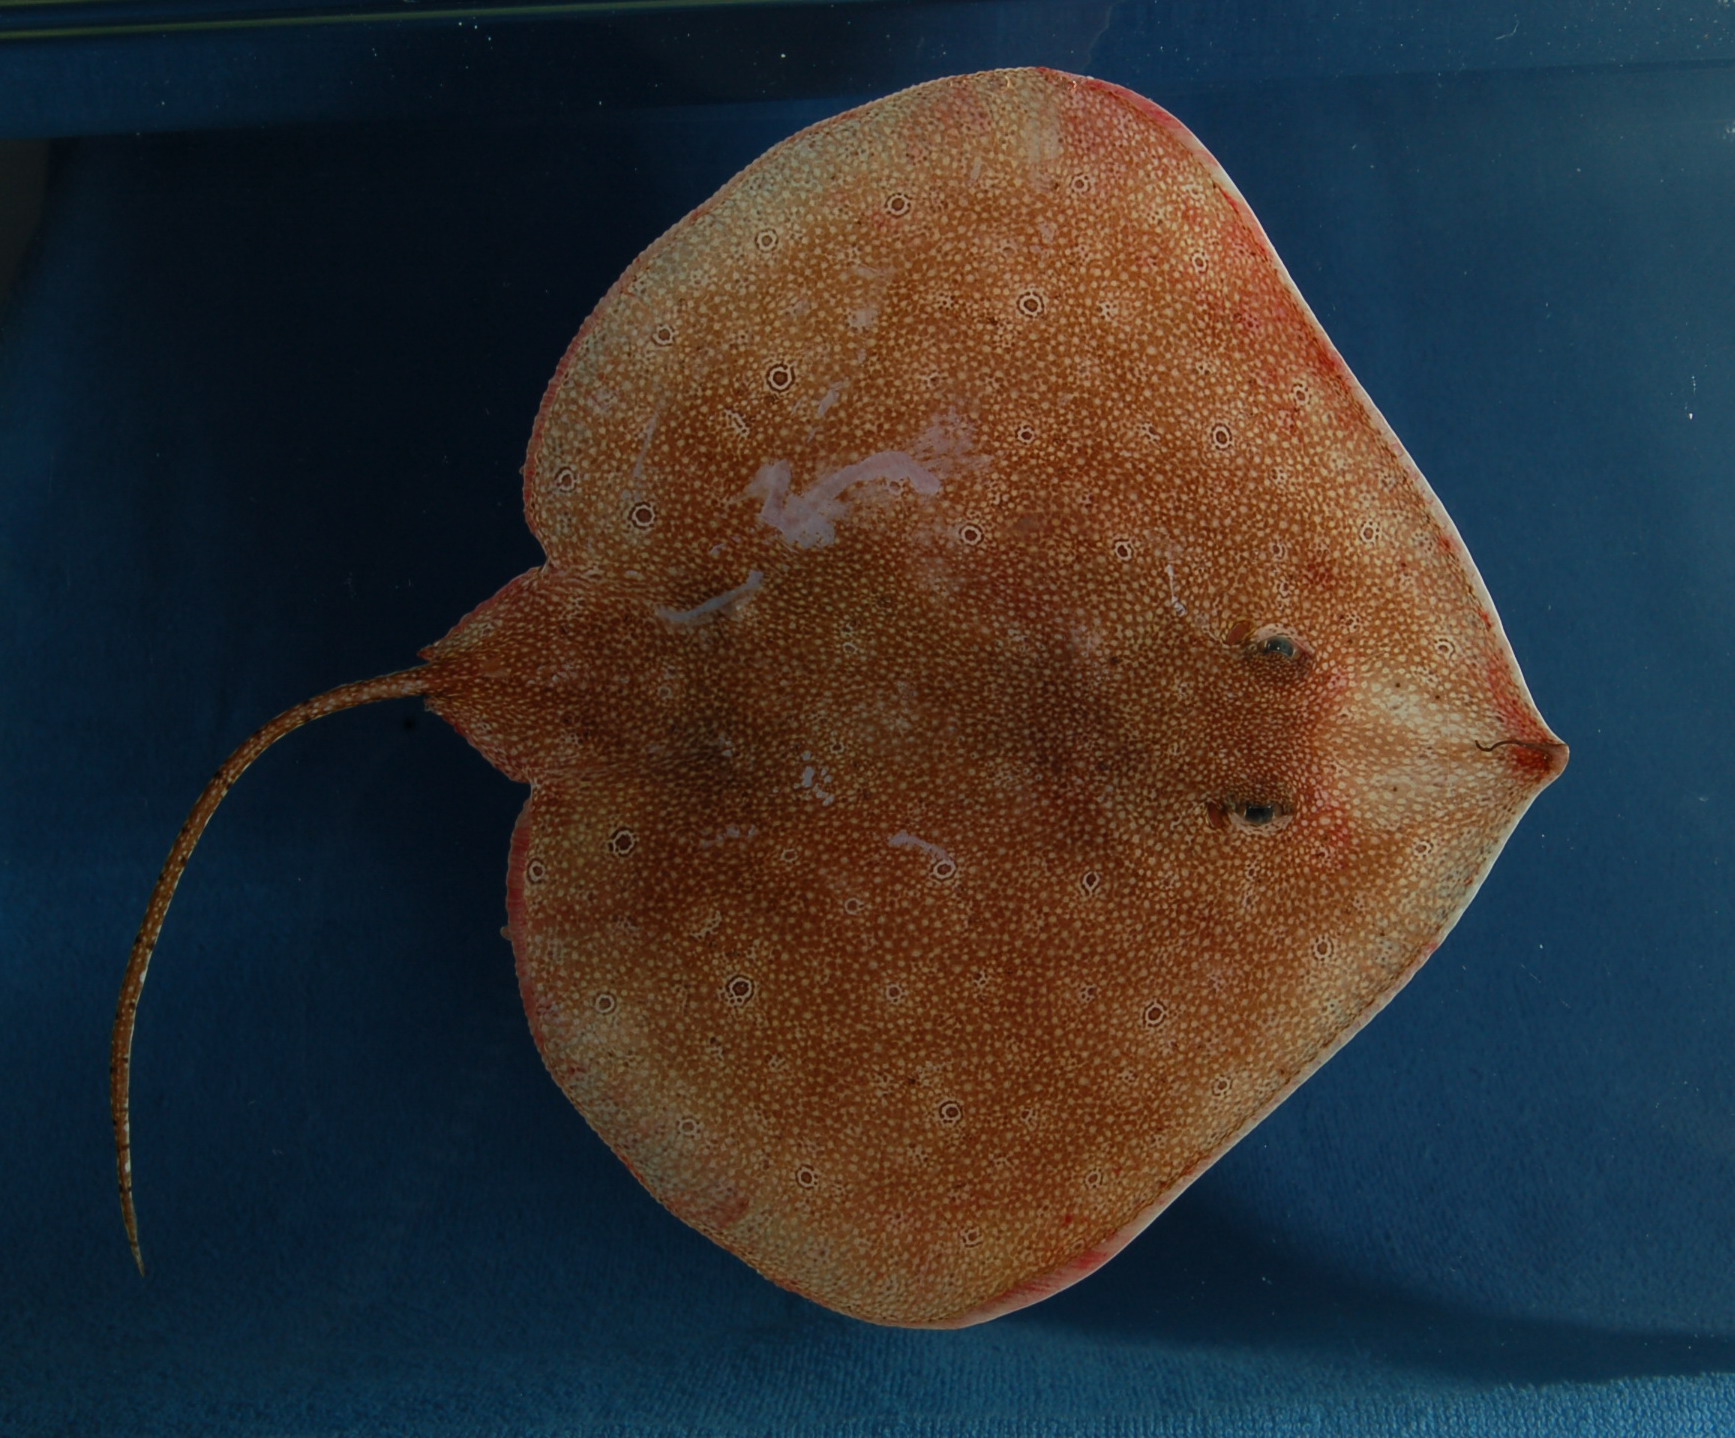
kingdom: Animalia
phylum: Chordata
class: Elasmobranchii
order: Rajiformes
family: Anacanthobatidae
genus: Anacanthobatis
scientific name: Anacanthobatis marmorata
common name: Spotted legskate
